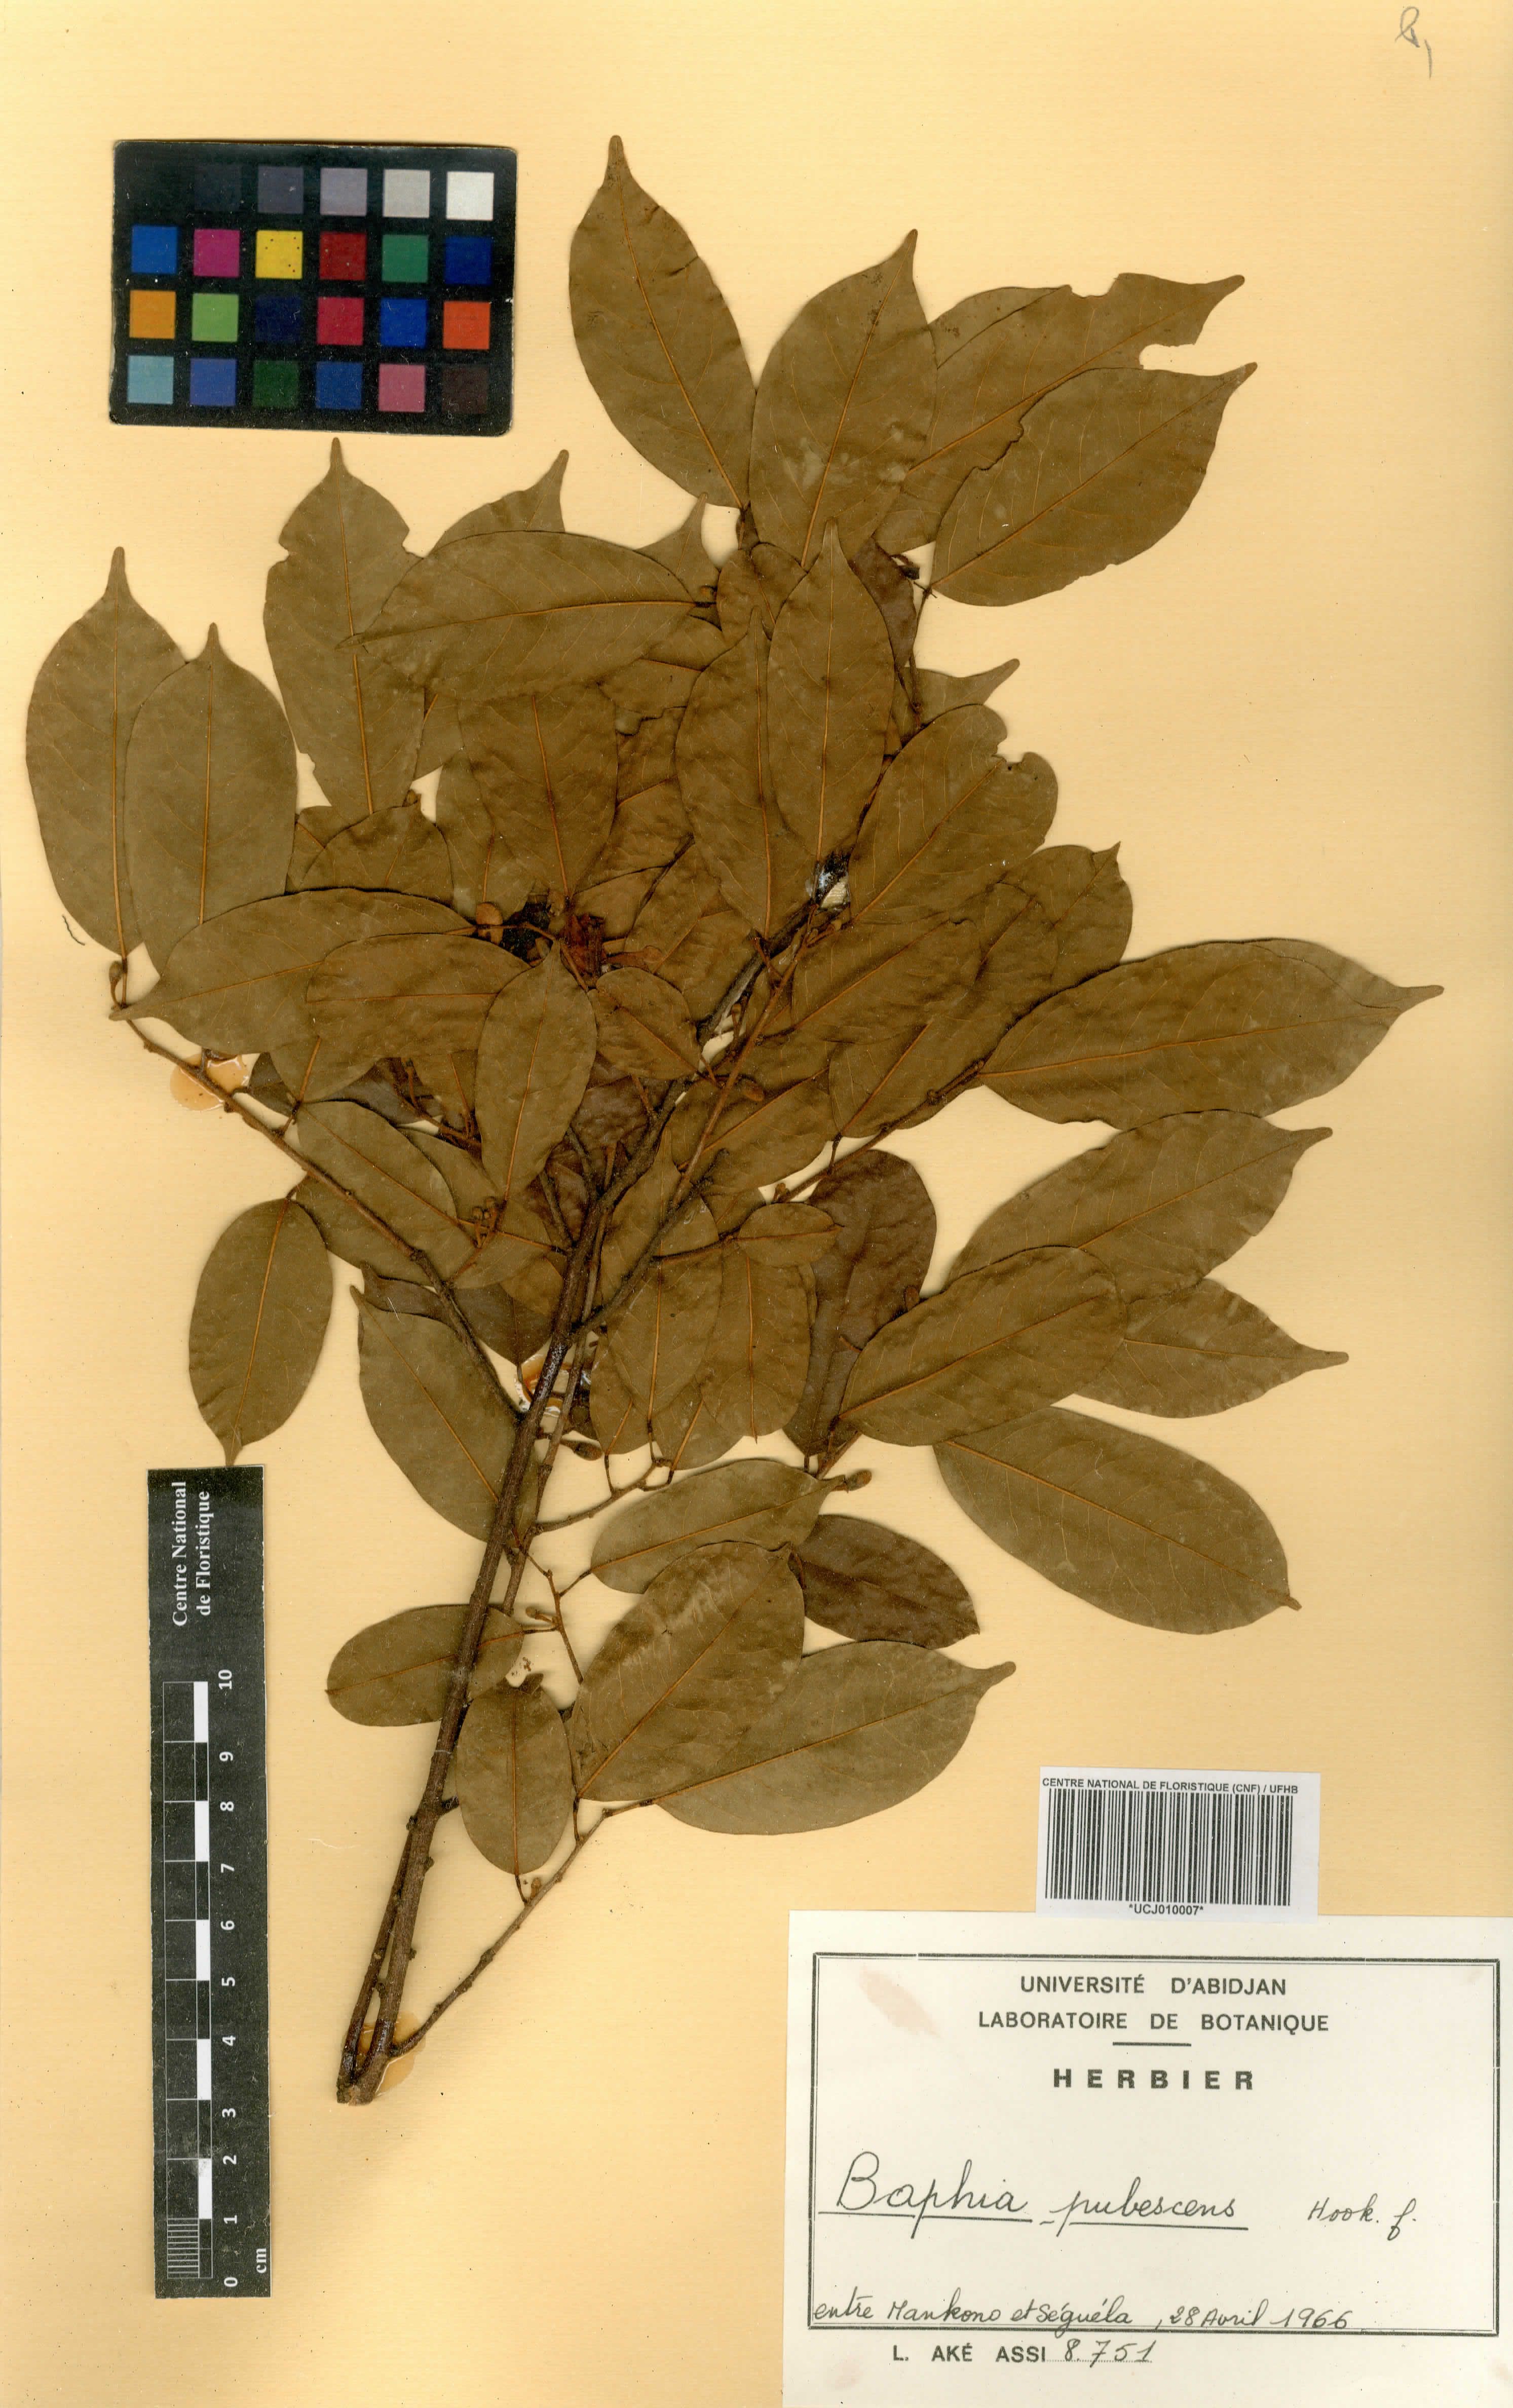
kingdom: Plantae
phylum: Tracheophyta
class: Magnoliopsida
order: Fabales
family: Fabaceae
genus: Baphia
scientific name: Baphia pubescens
